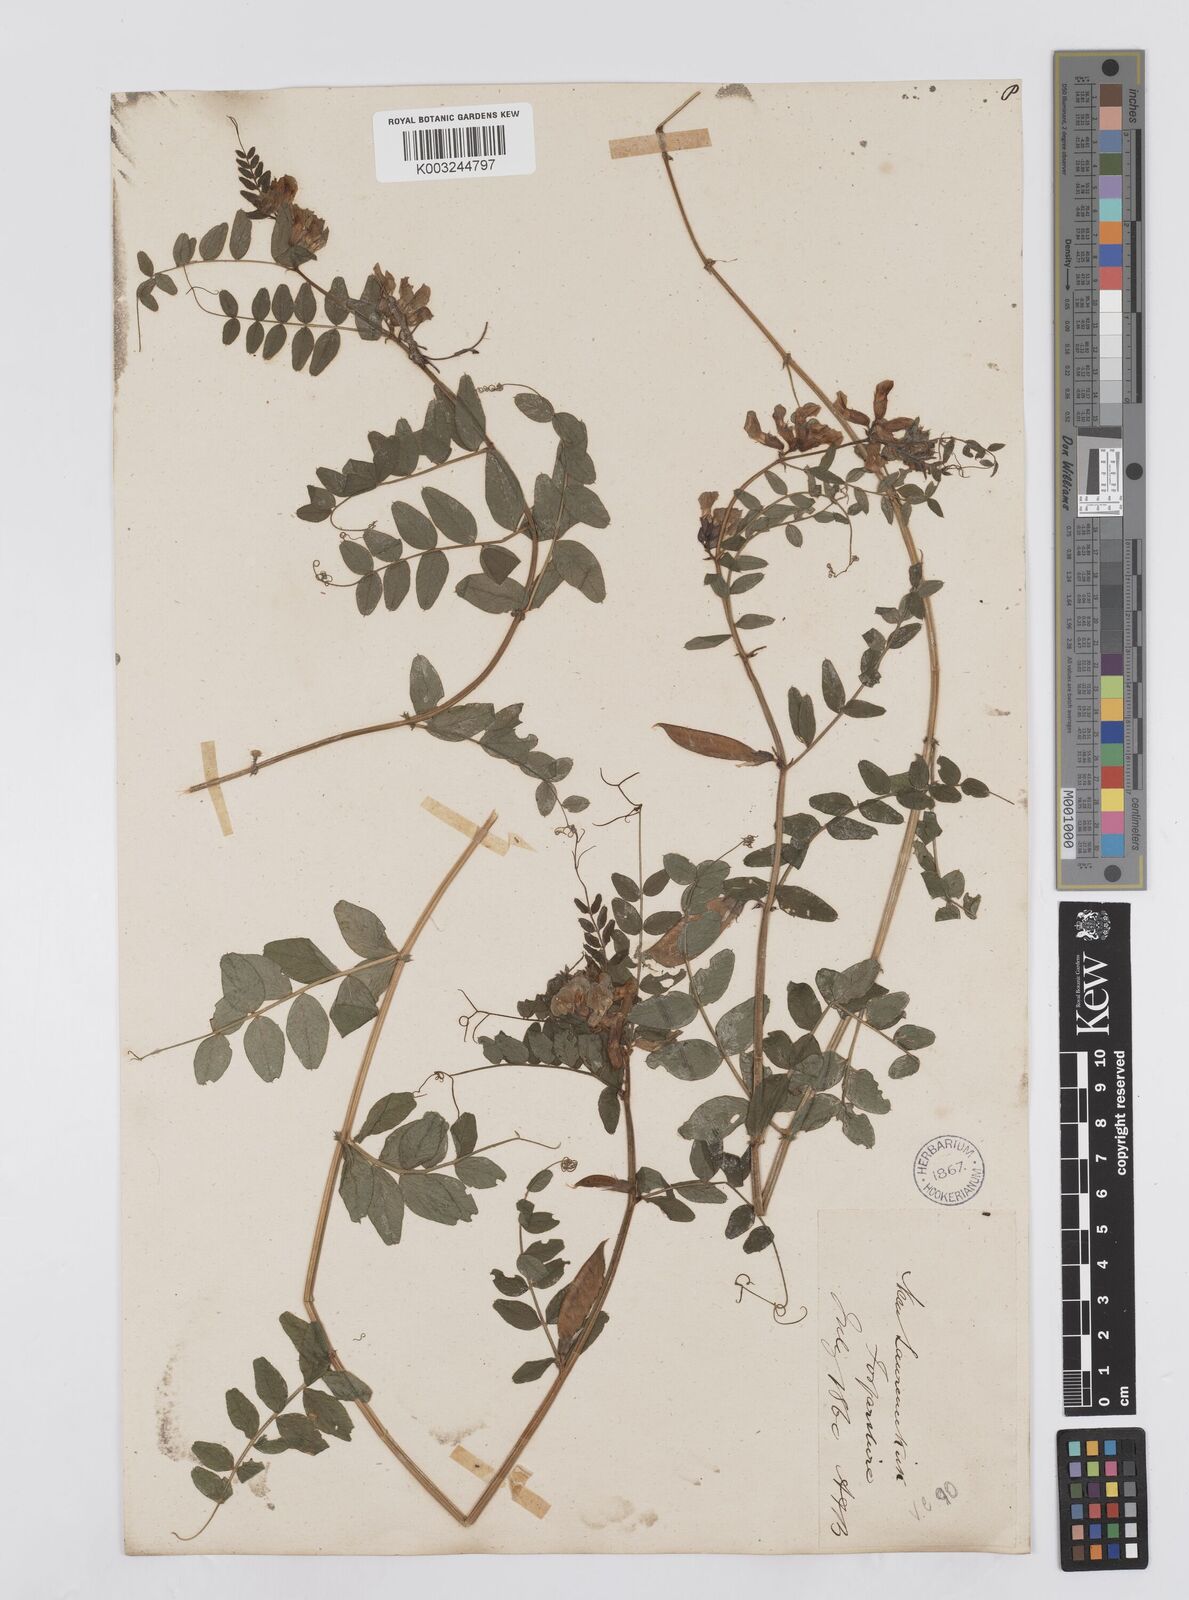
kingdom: Plantae
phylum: Tracheophyta
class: Magnoliopsida
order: Fabales
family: Fabaceae
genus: Vicia
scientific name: Vicia sepium
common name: Bush vetch
